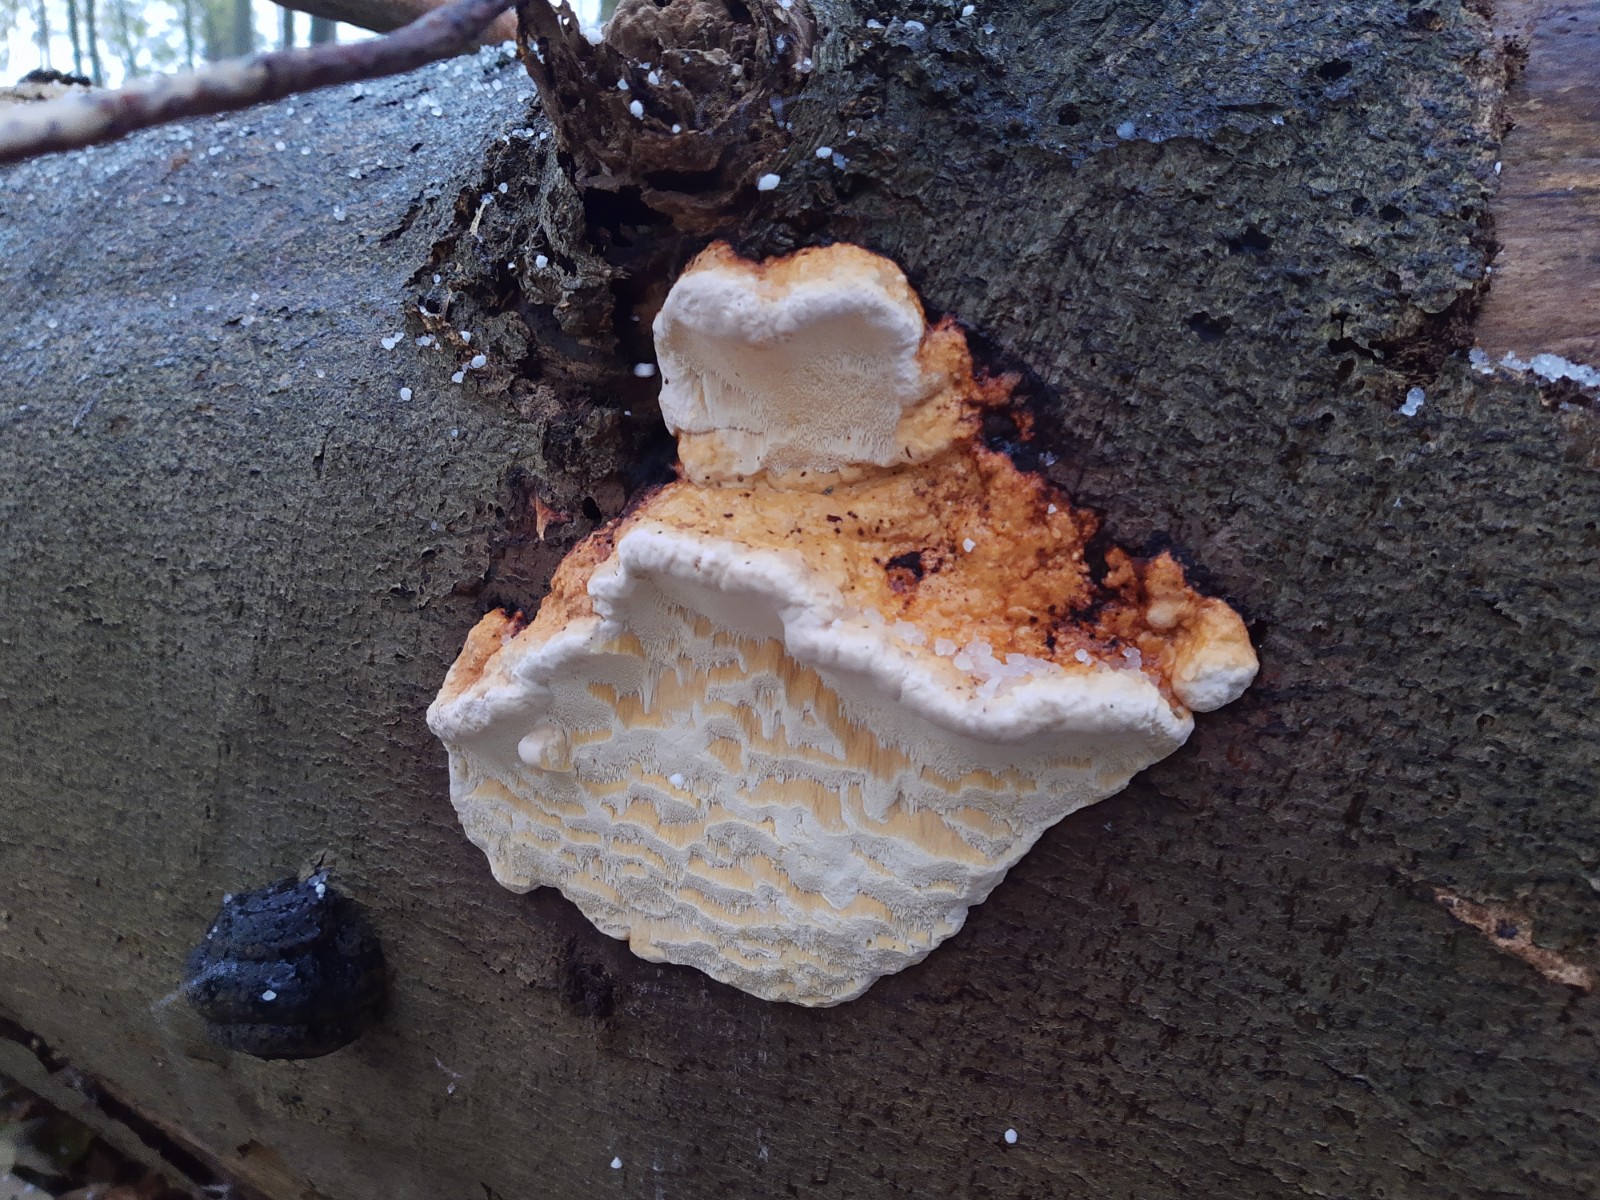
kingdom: Fungi
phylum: Basidiomycota
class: Agaricomycetes
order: Polyporales
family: Fomitopsidaceae
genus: Fomitopsis
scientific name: Fomitopsis pinicola
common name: randbæltet hovporesvamp
